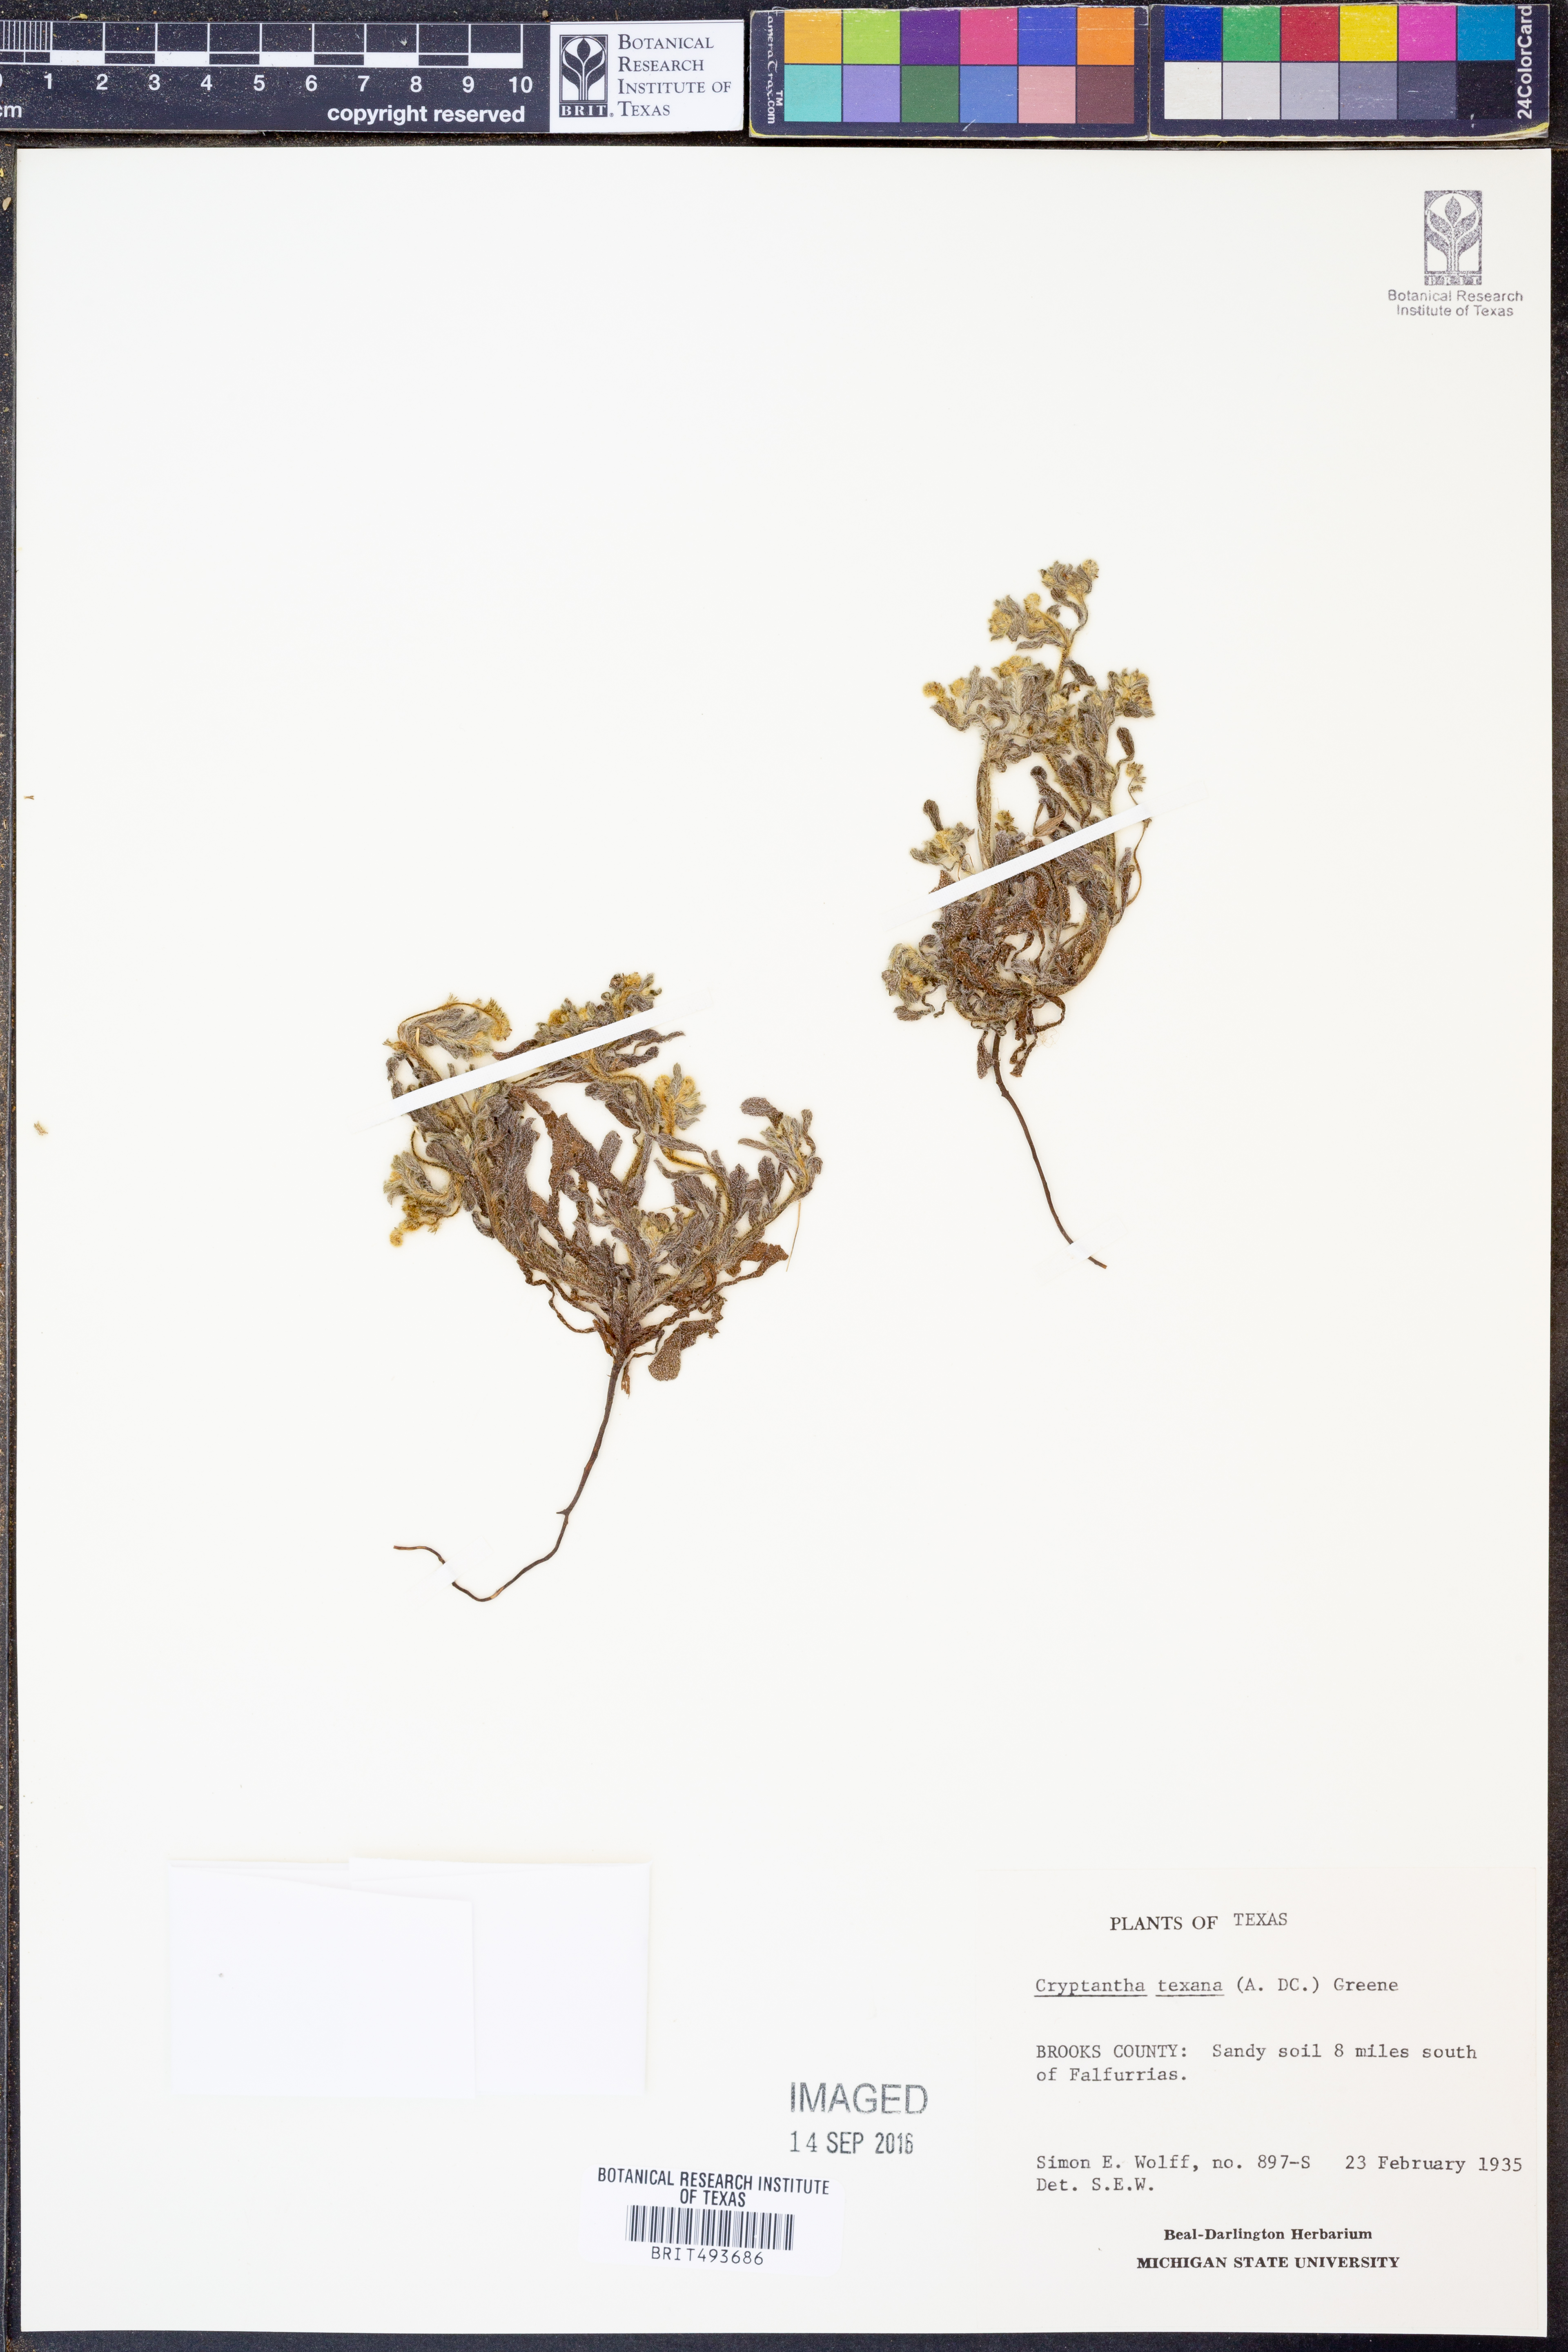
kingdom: Plantae
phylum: Tracheophyta
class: Magnoliopsida
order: Boraginales
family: Boraginaceae
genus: Cryptantha
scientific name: Cryptantha texana
